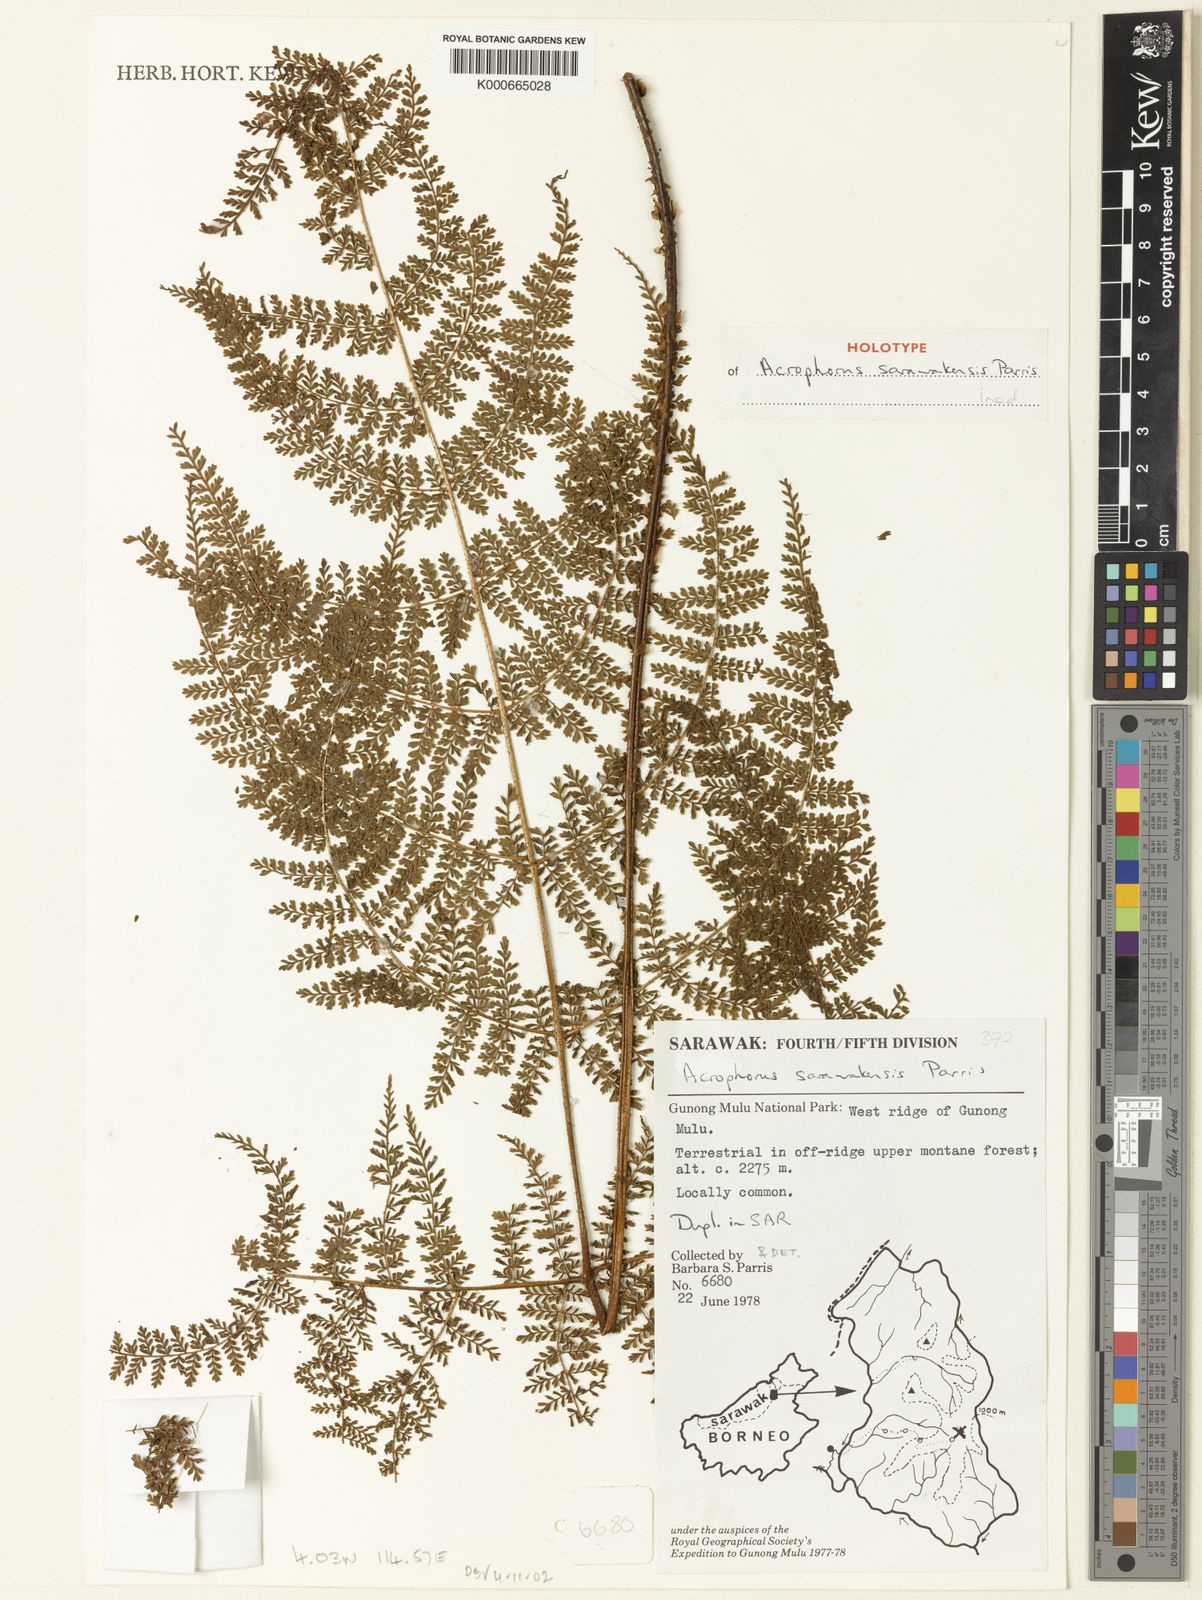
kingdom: Plantae
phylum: Tracheophyta
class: Polypodiopsida
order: Polypodiales
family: Dryopteridaceae
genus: Acrophorus
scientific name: Acrophorus
